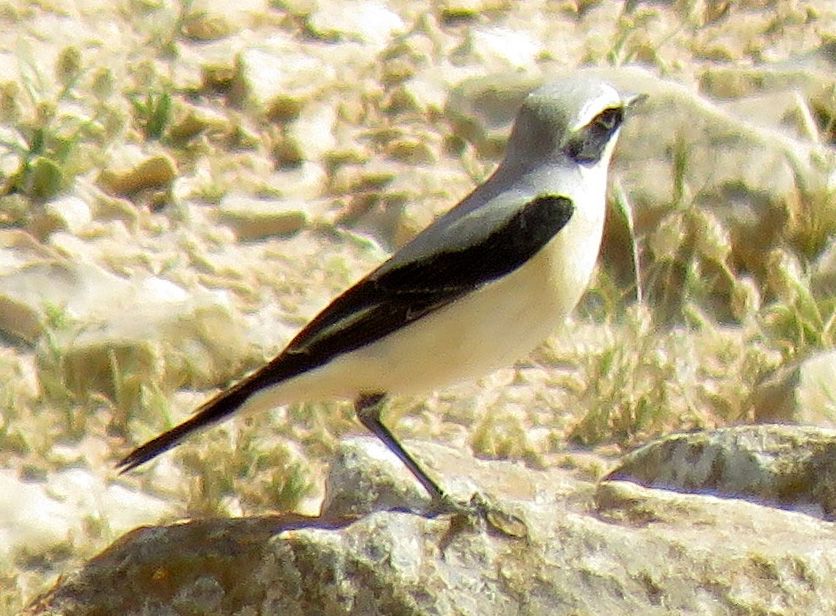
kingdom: Animalia
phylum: Chordata
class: Aves
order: Passeriformes
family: Muscicapidae
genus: Oenanthe
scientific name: Oenanthe oenanthe
